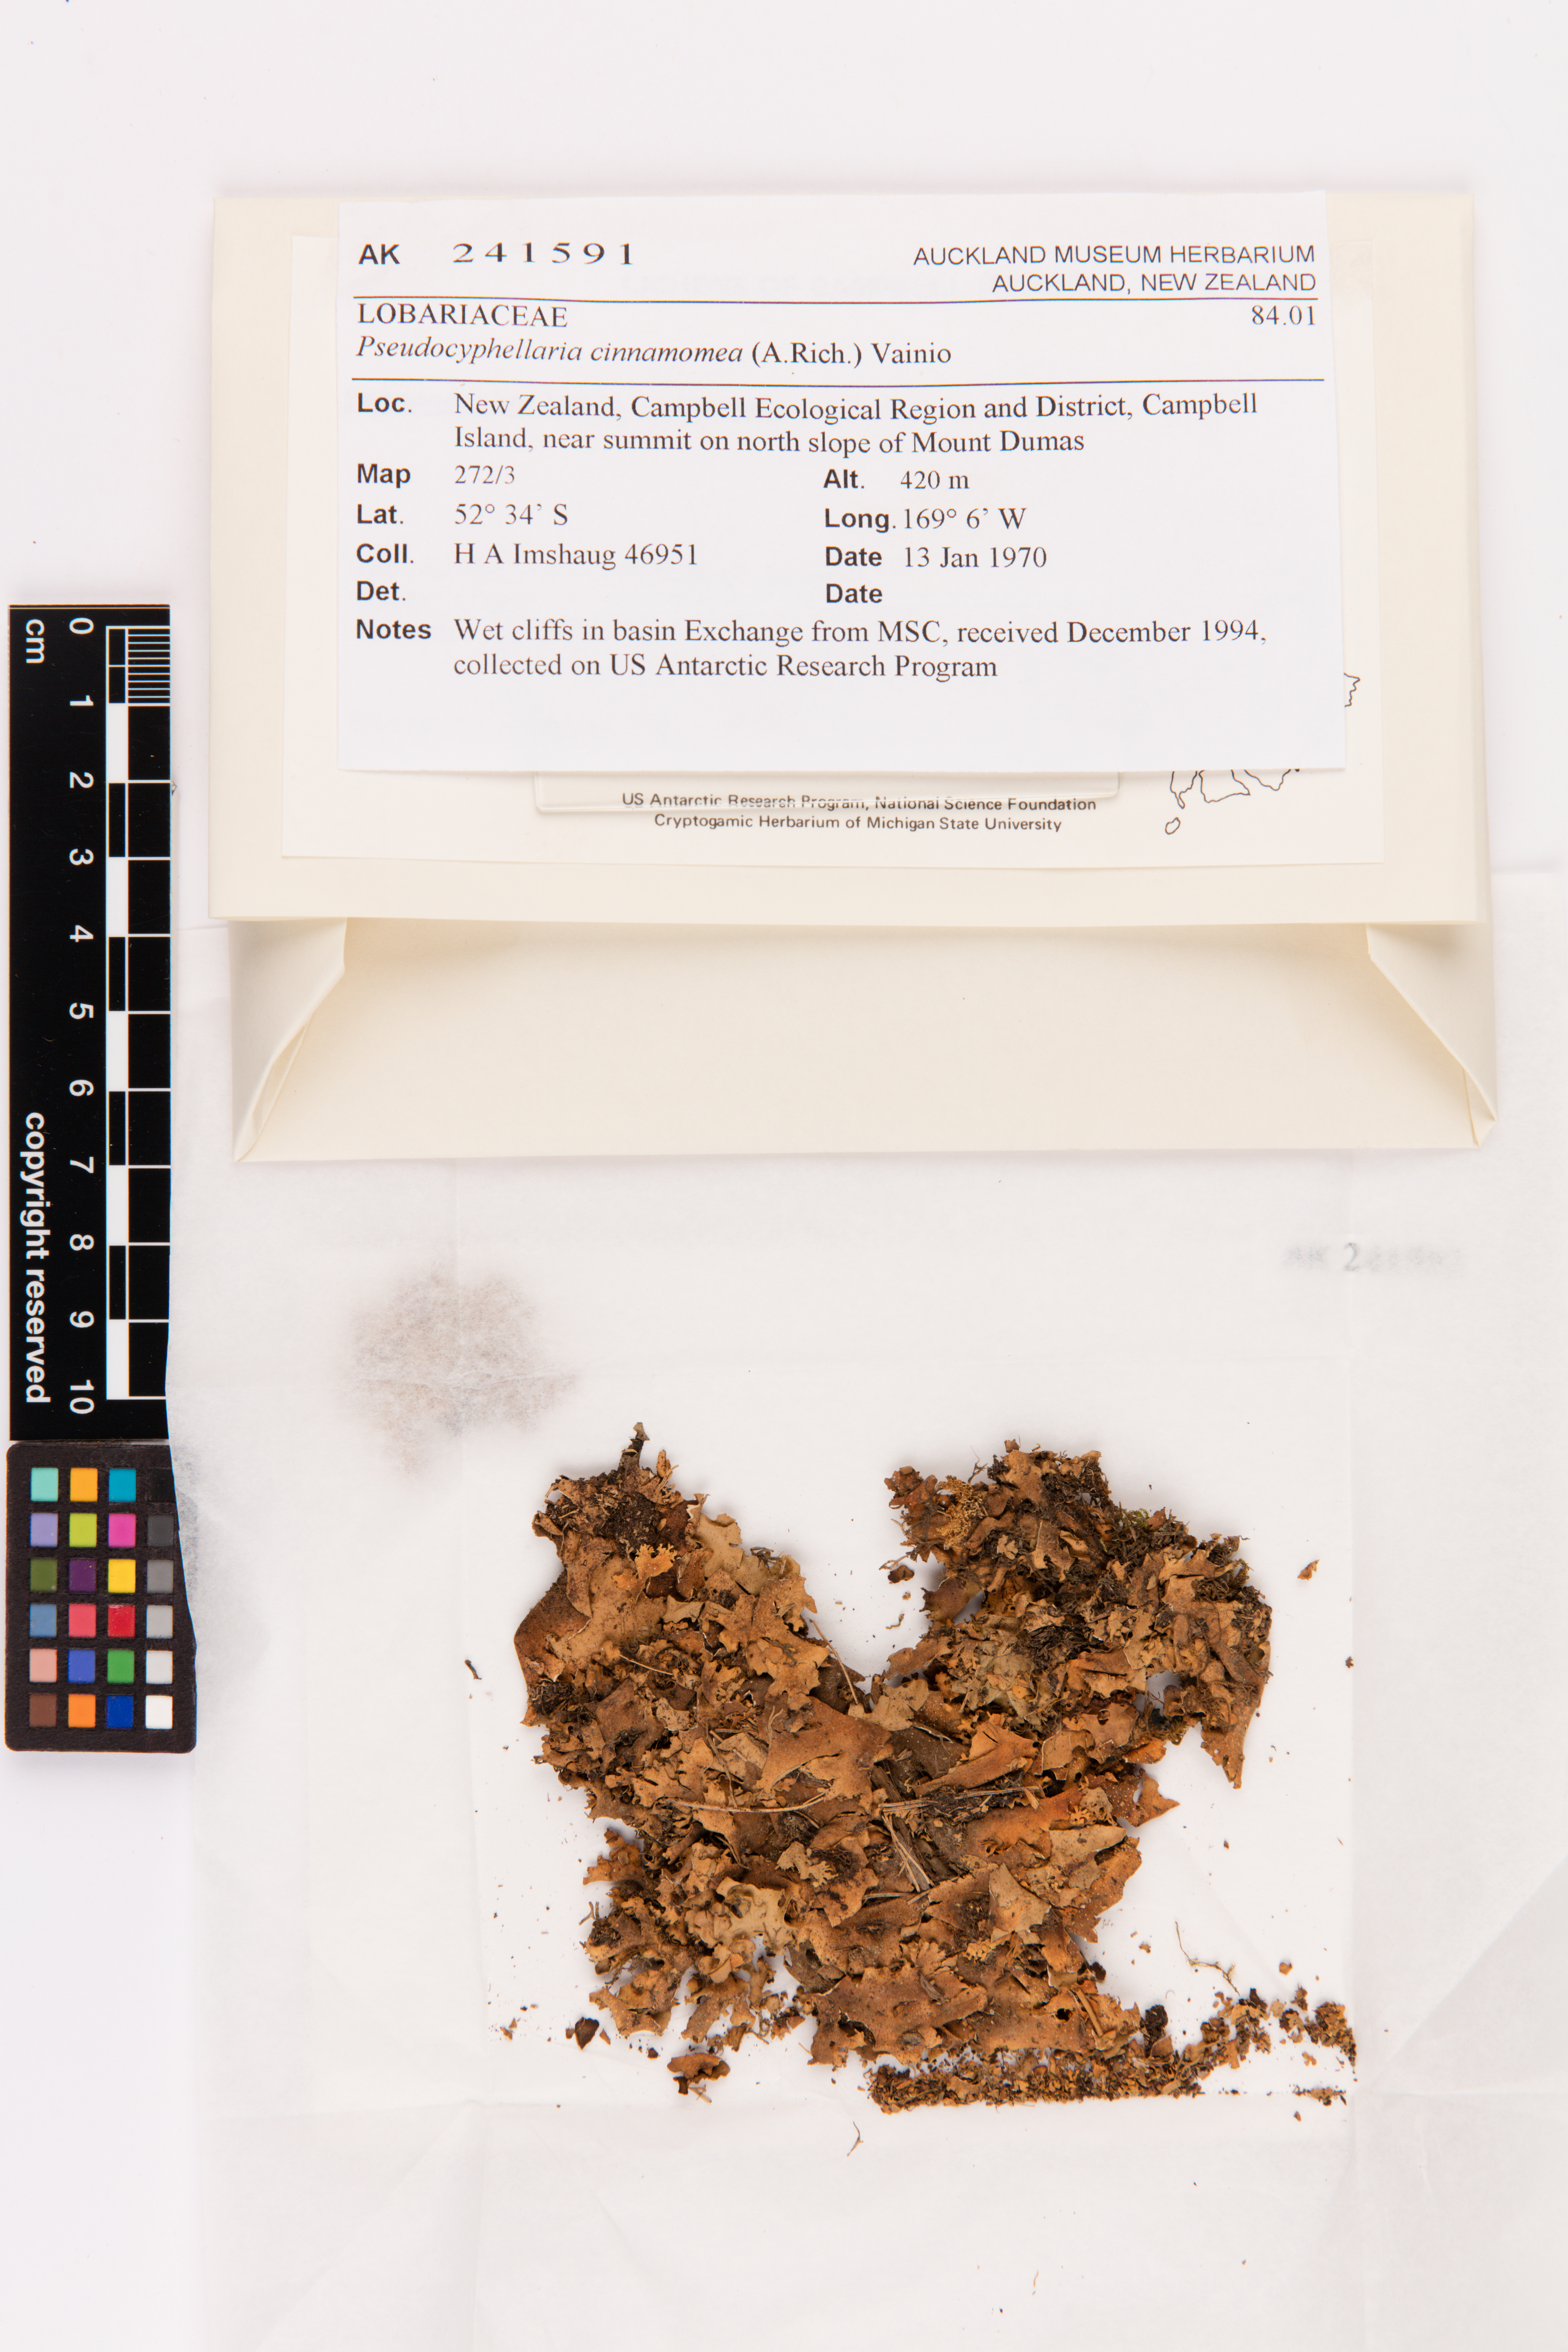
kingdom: Fungi
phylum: Ascomycota
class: Lecanoromycetes
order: Peltigerales
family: Lobariaceae
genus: Pseudocyphellaria
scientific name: Pseudocyphellaria cinnamomea
